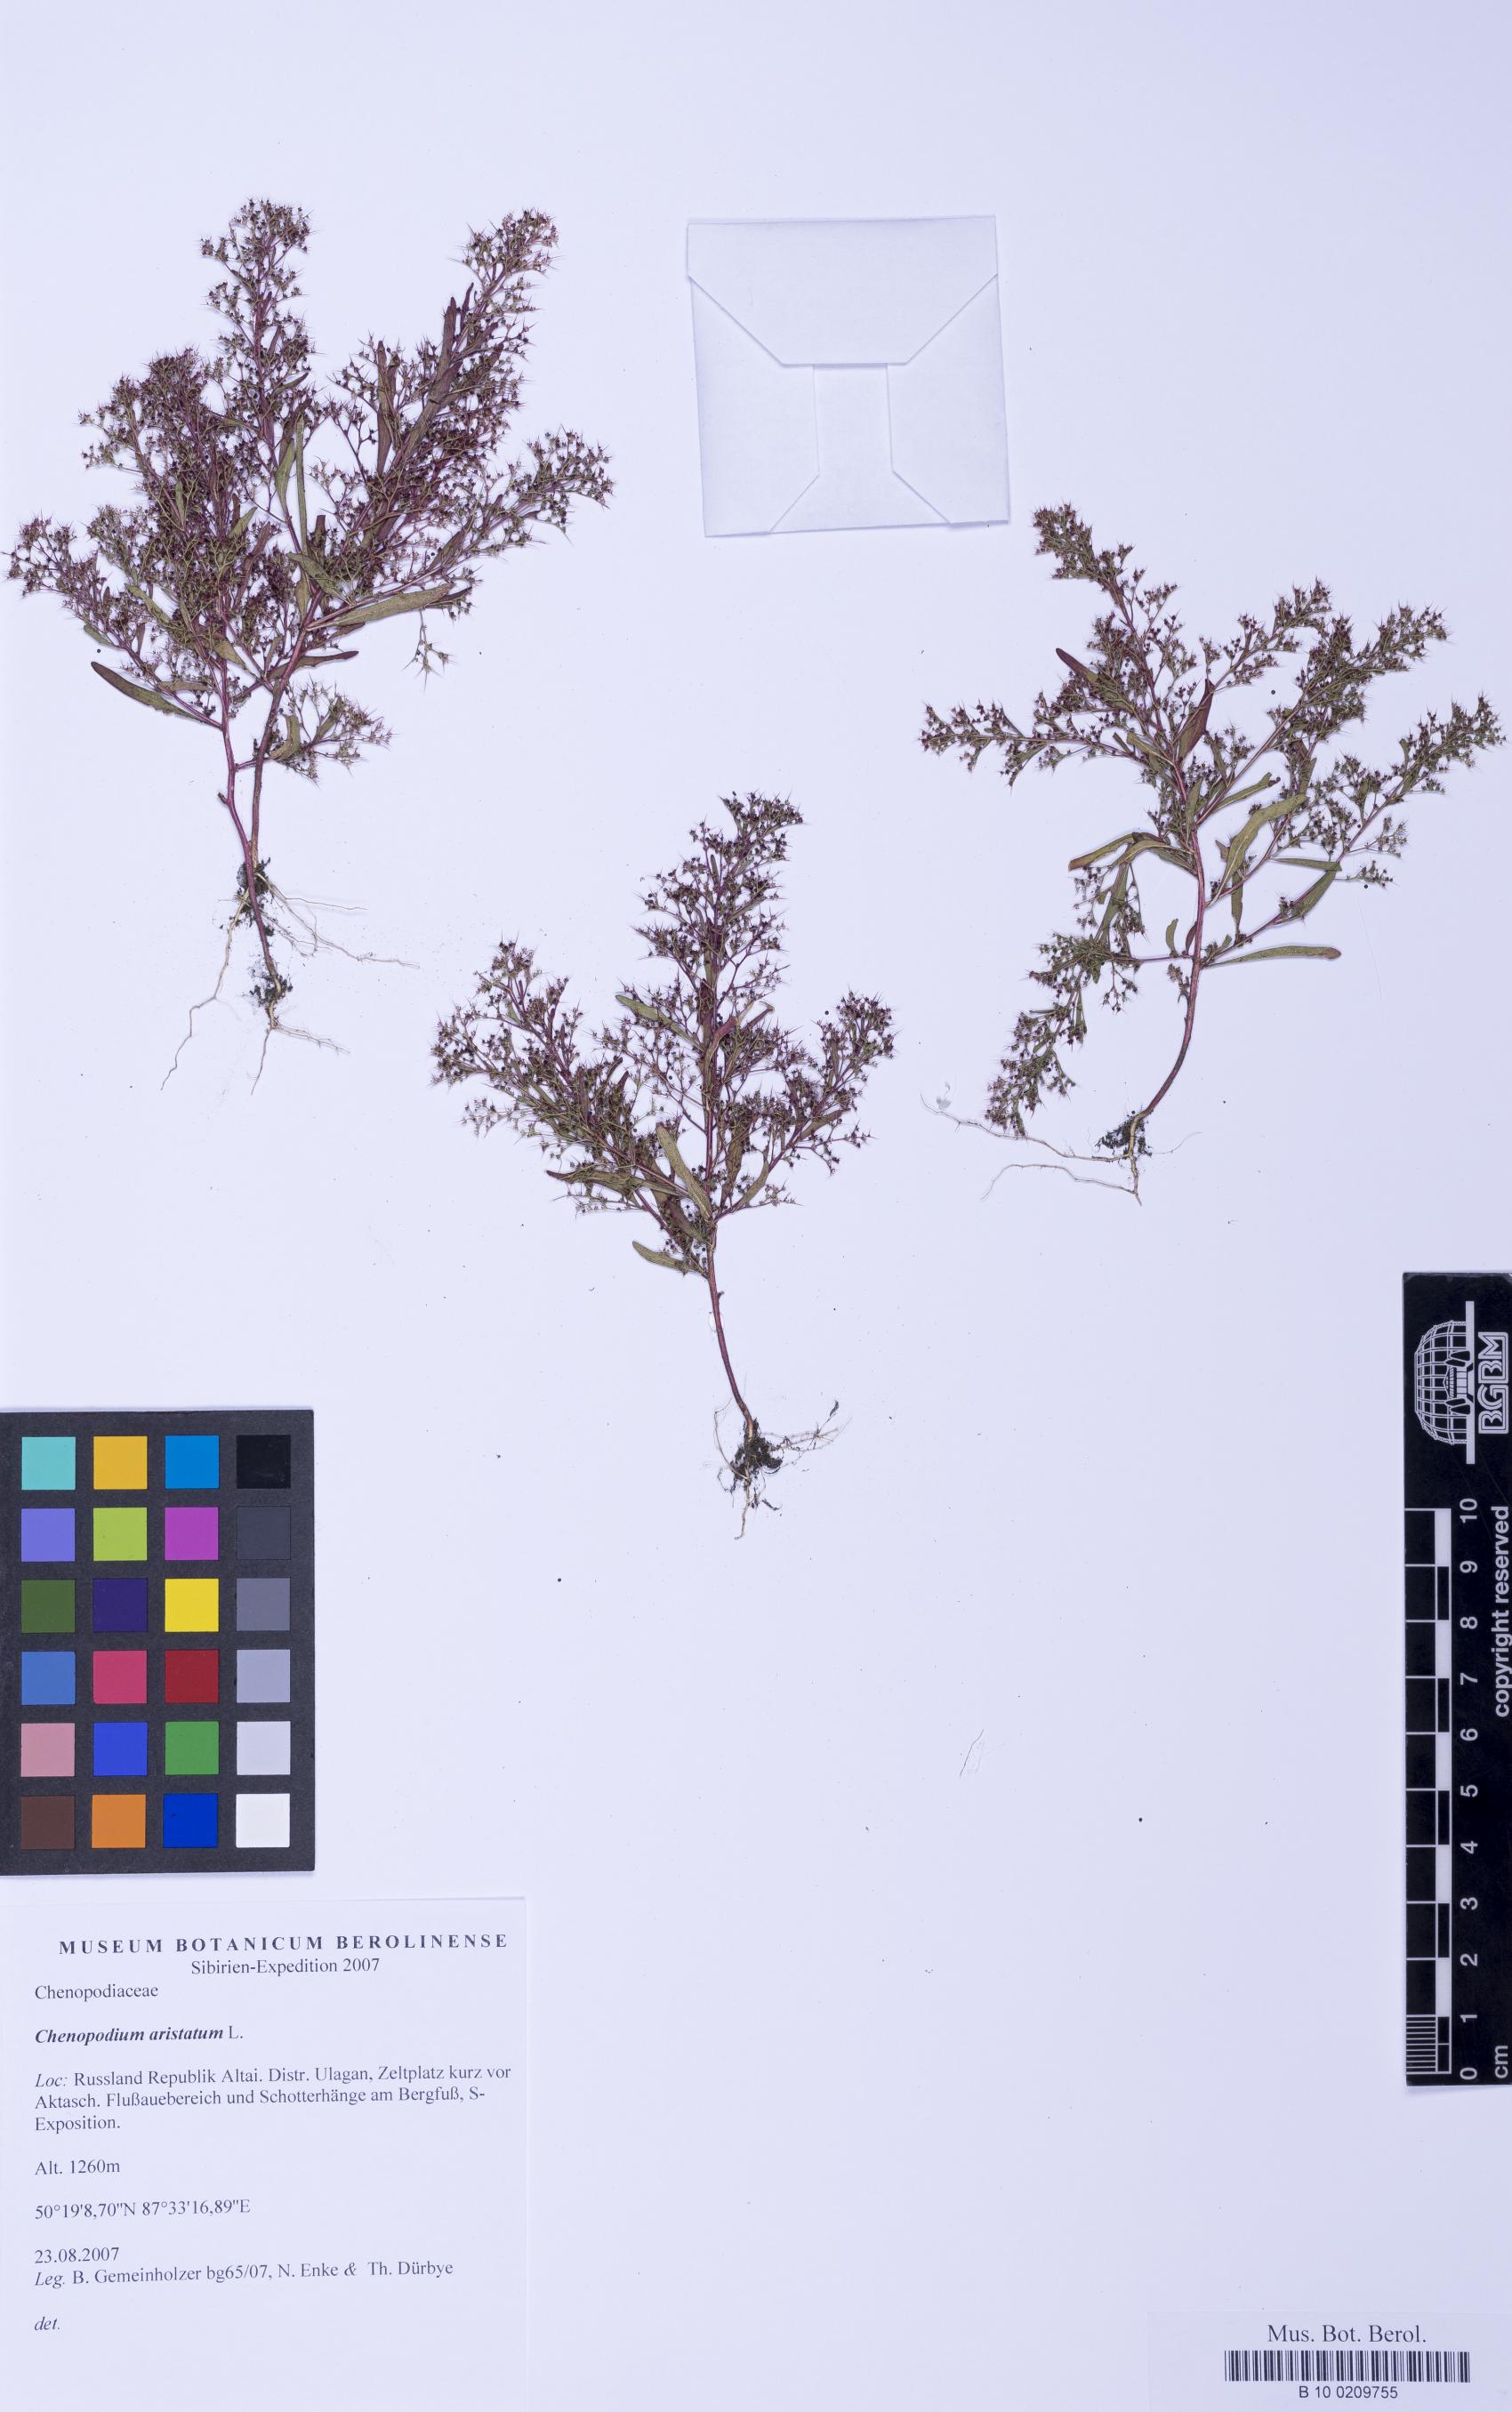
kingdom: Plantae
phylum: Tracheophyta
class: Magnoliopsida
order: Caryophyllales
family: Amaranthaceae
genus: Teloxys
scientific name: Teloxys aristata
